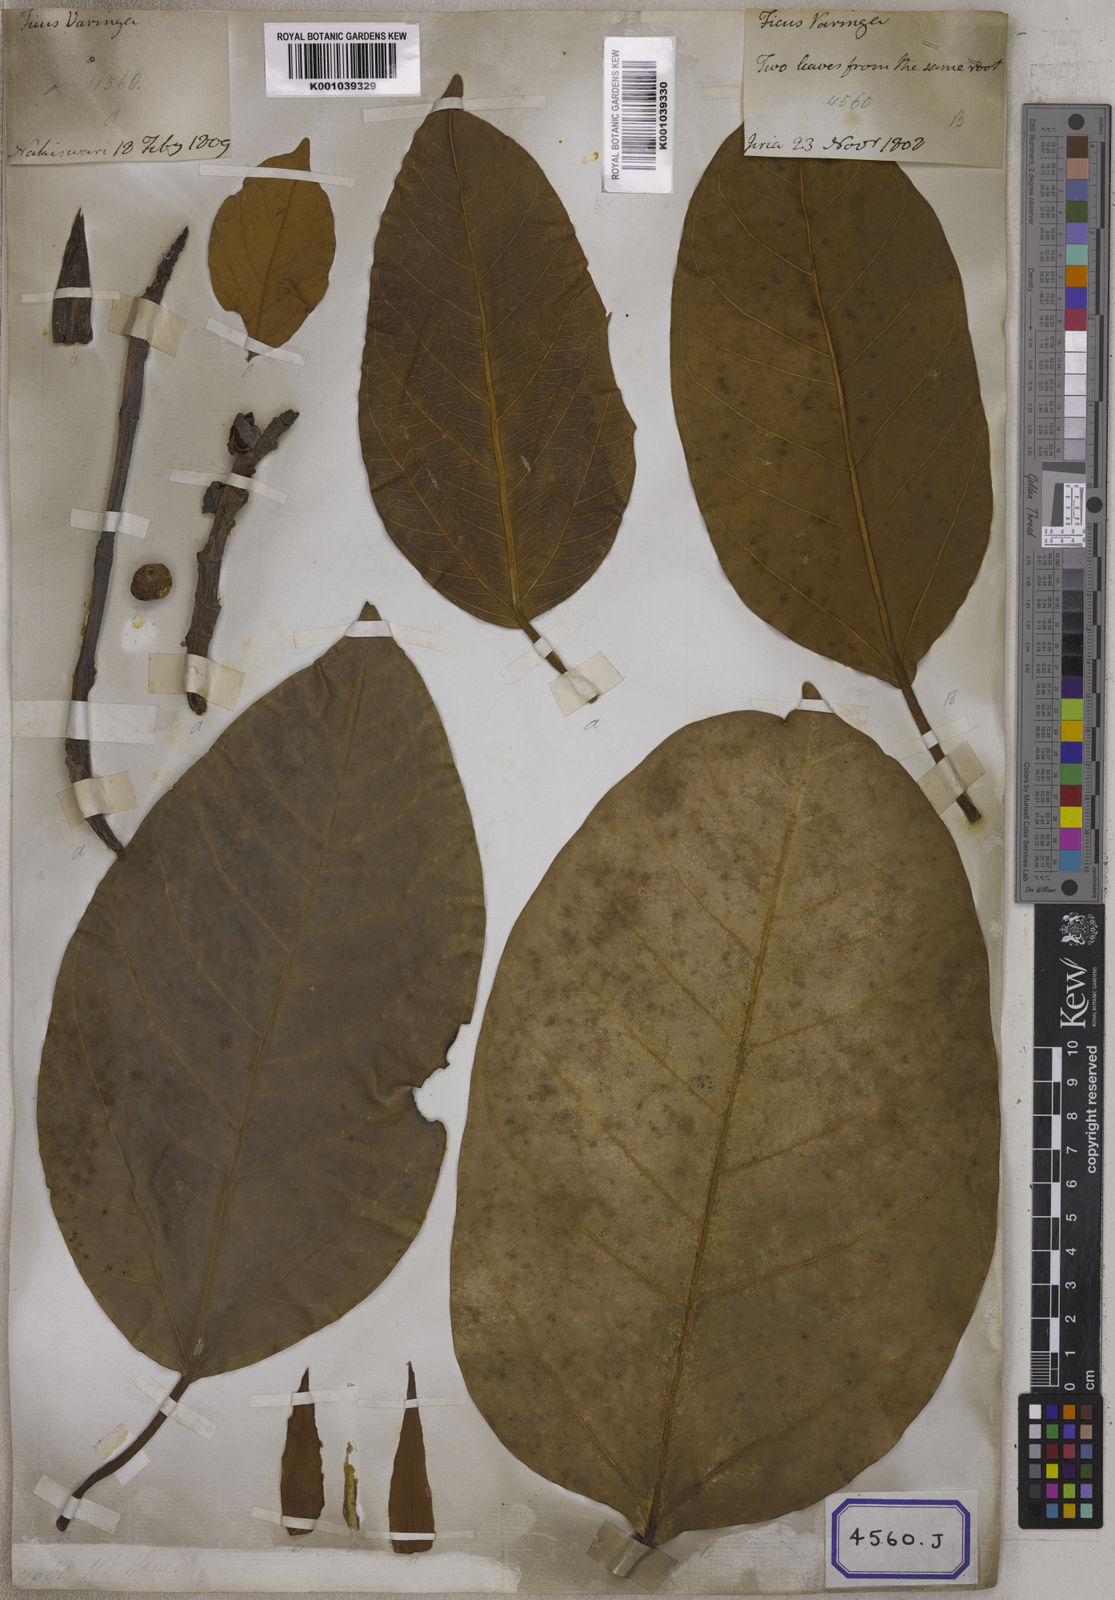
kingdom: Plantae
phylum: Tracheophyta
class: Magnoliopsida
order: Rosales
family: Moraceae
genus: Ficus
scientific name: Ficus
